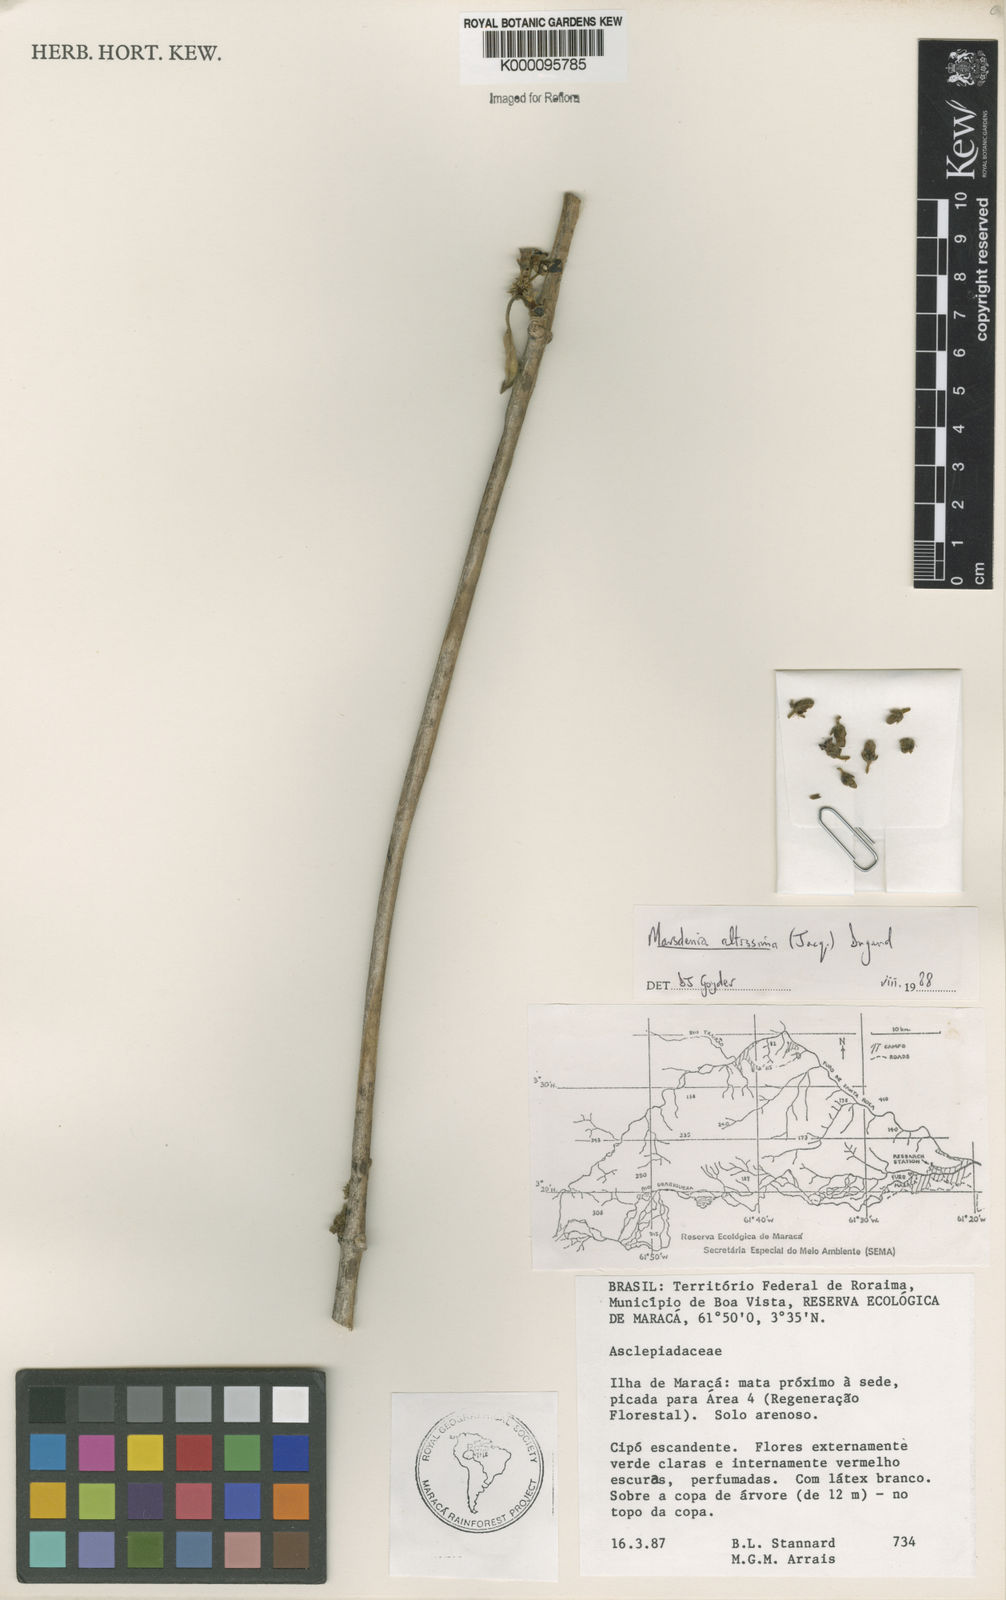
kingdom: Plantae
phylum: Tracheophyta
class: Magnoliopsida
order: Gentianales
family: Apocynaceae
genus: Ruehssia
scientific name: Ruehssia altissima
